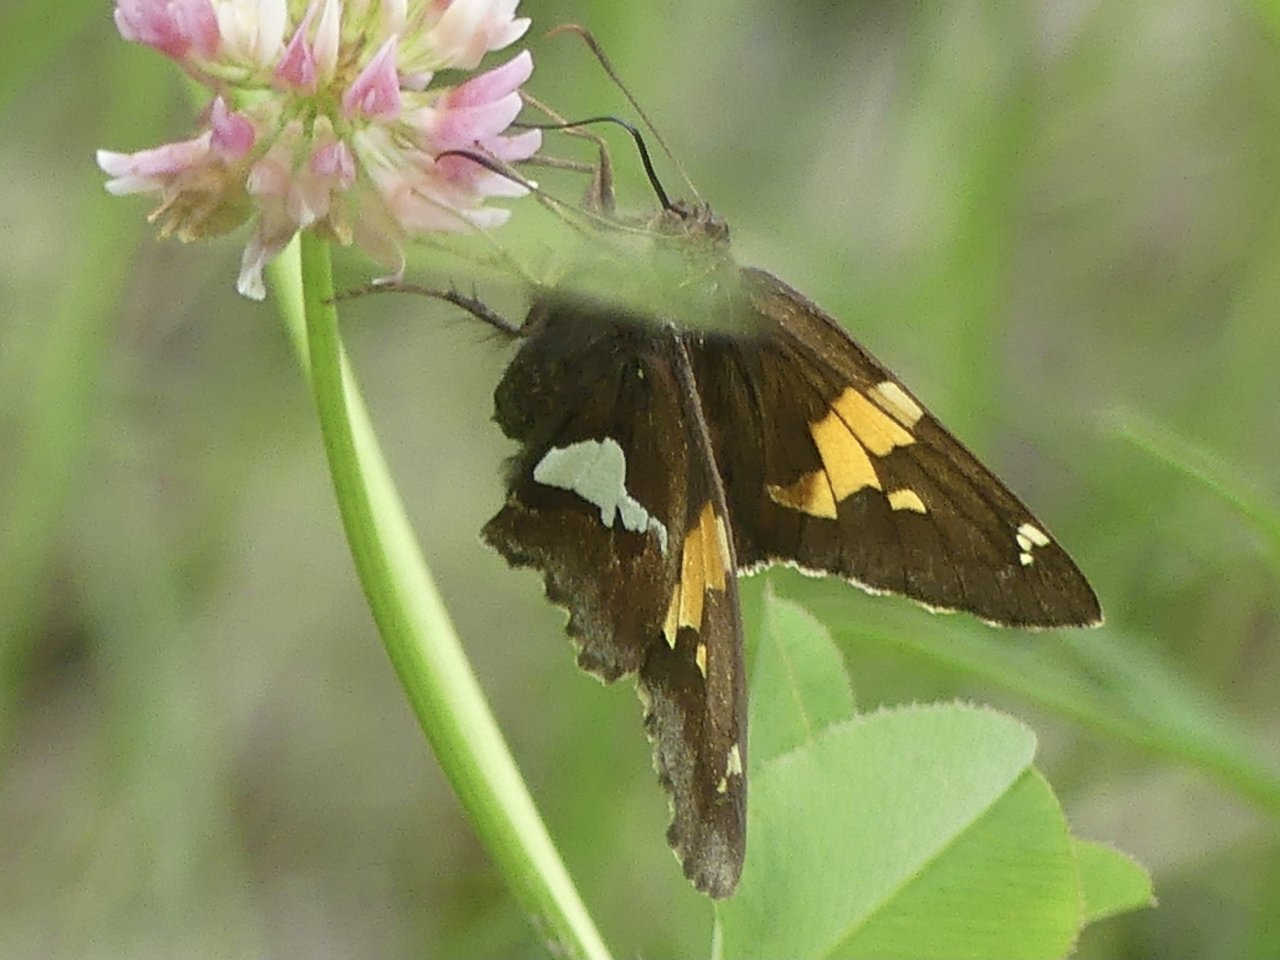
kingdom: Animalia
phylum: Arthropoda
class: Insecta
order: Lepidoptera
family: Hesperiidae
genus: Epargyreus
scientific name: Epargyreus clarus
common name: Silver-spotted Skipper
